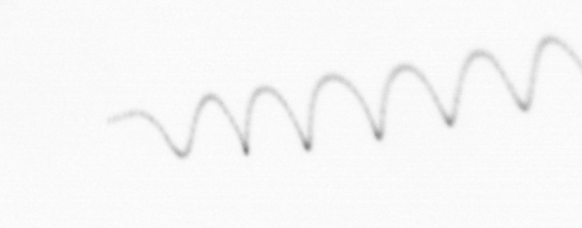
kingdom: Chromista
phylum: Ochrophyta
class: Bacillariophyceae
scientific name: Bacillariophyceae
